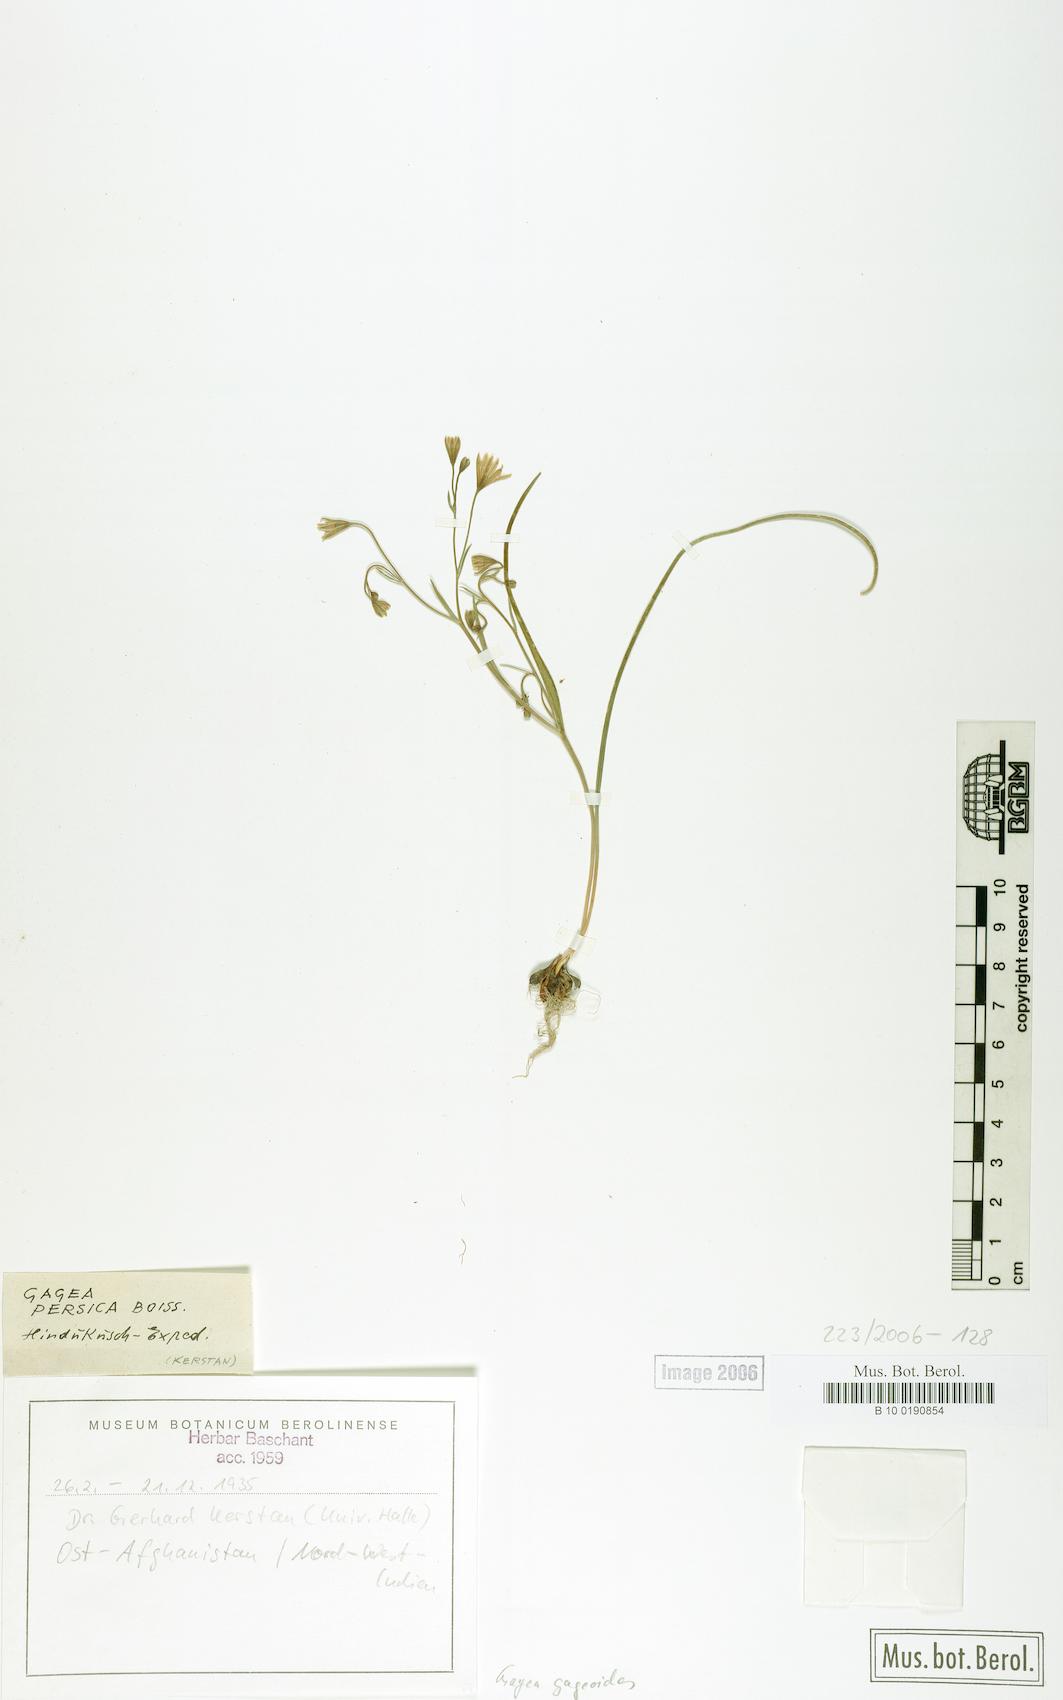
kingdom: Plantae
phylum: Tracheophyta
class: Liliopsida
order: Liliales
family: Liliaceae
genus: Gagea
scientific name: Gagea gageoides
